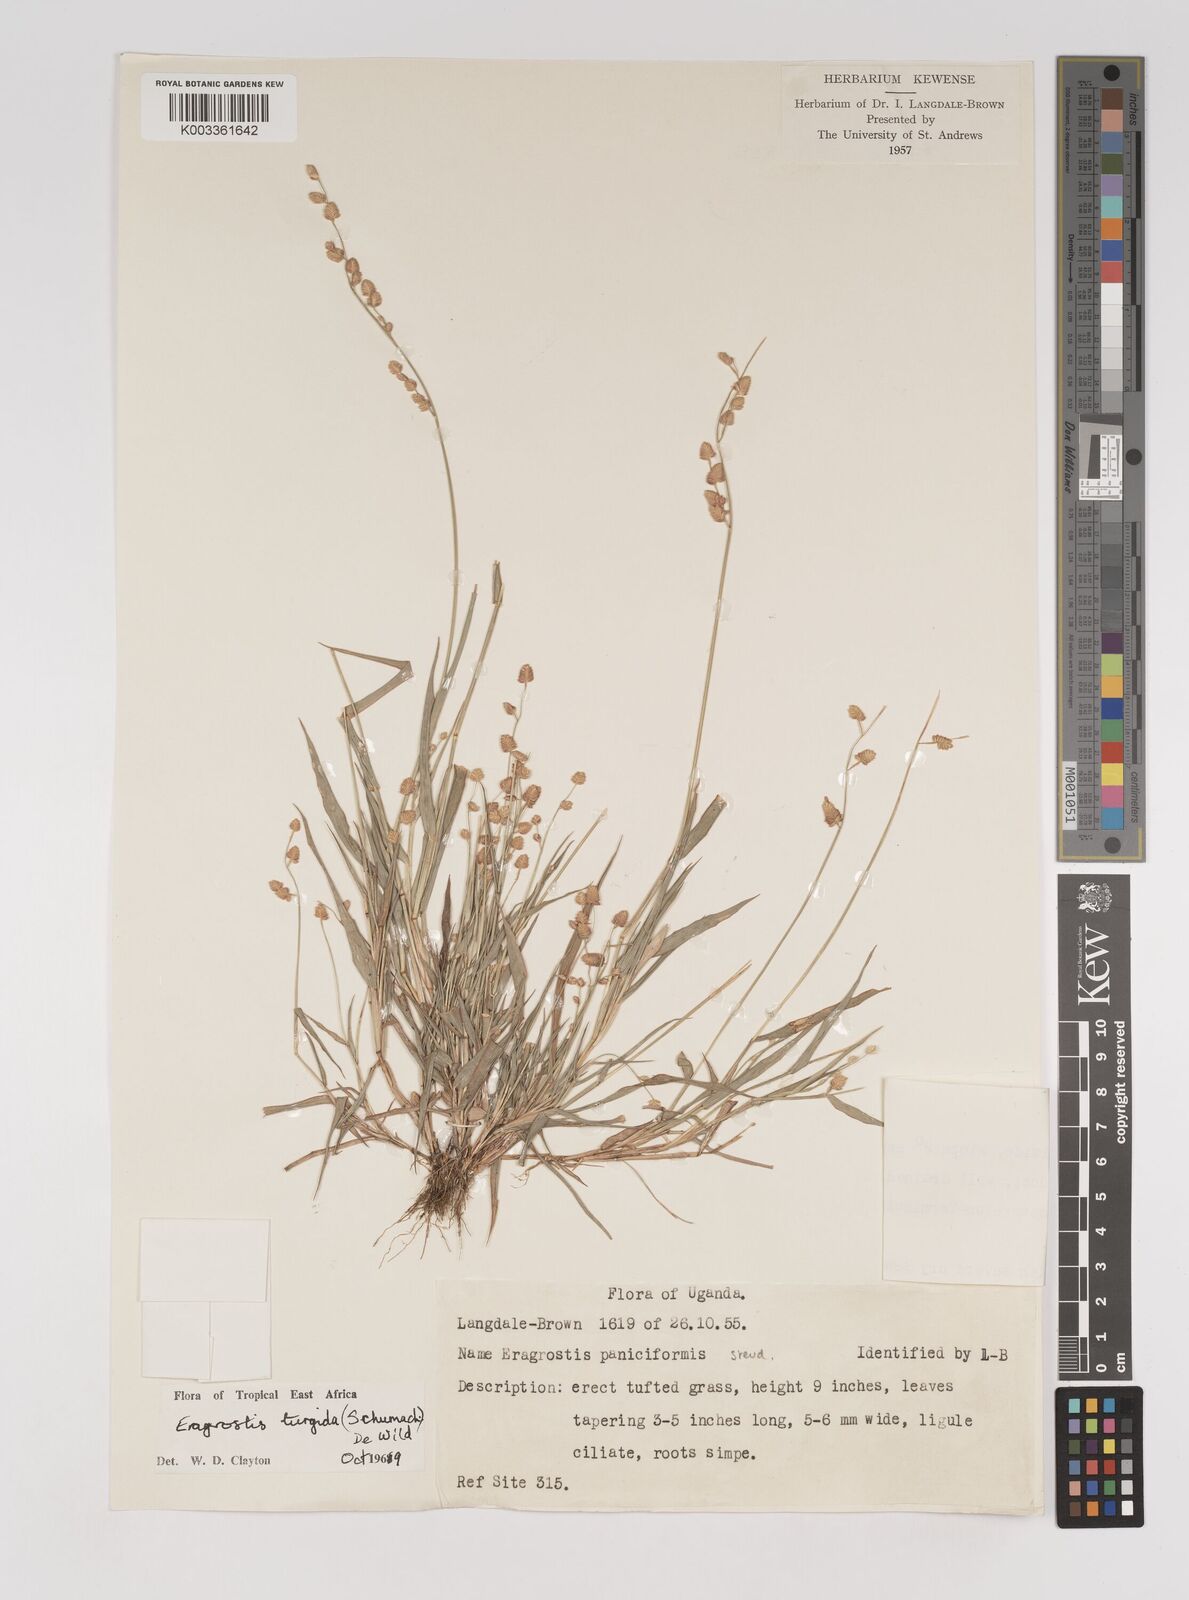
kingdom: Plantae
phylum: Tracheophyta
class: Liliopsida
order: Poales
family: Poaceae
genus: Eragrostis
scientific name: Eragrostis turgida
